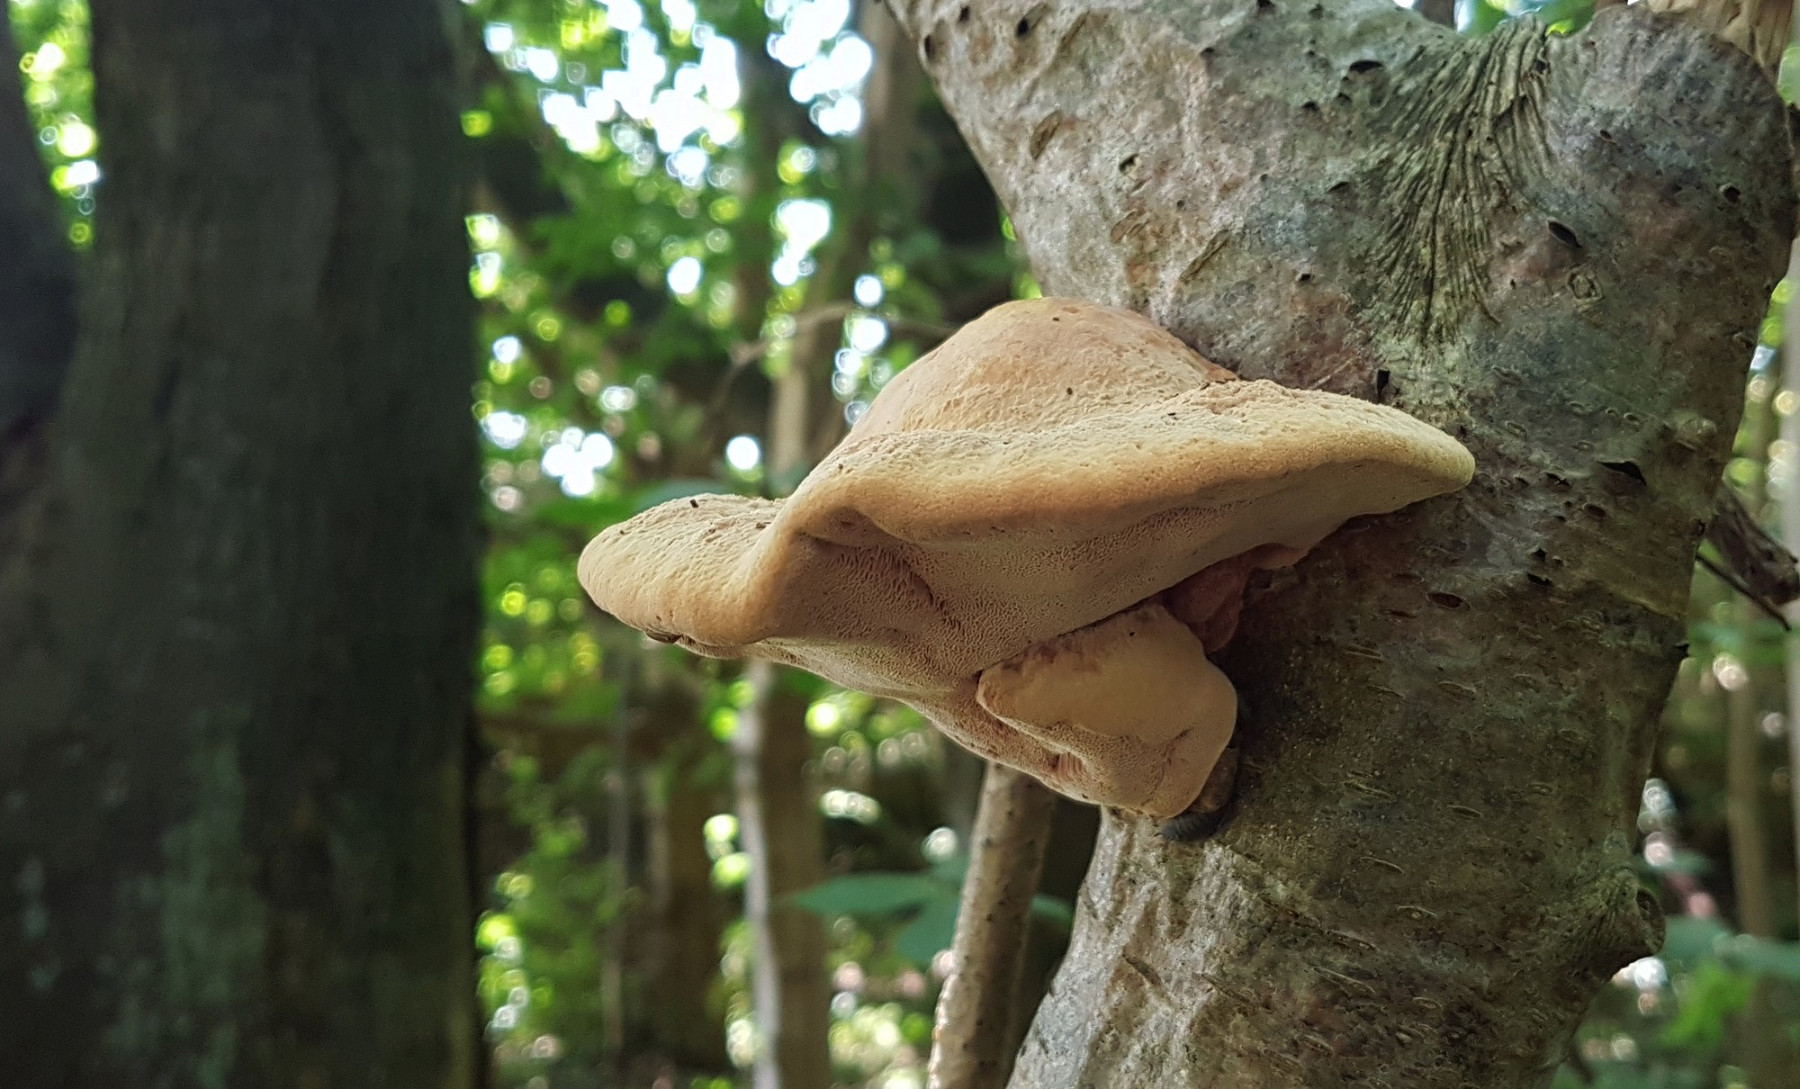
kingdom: Fungi
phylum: Basidiomycota
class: Agaricomycetes
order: Polyporales
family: Phanerochaetaceae
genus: Hapalopilus
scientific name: Hapalopilus rutilans
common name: rødlig okkerporesvamp
